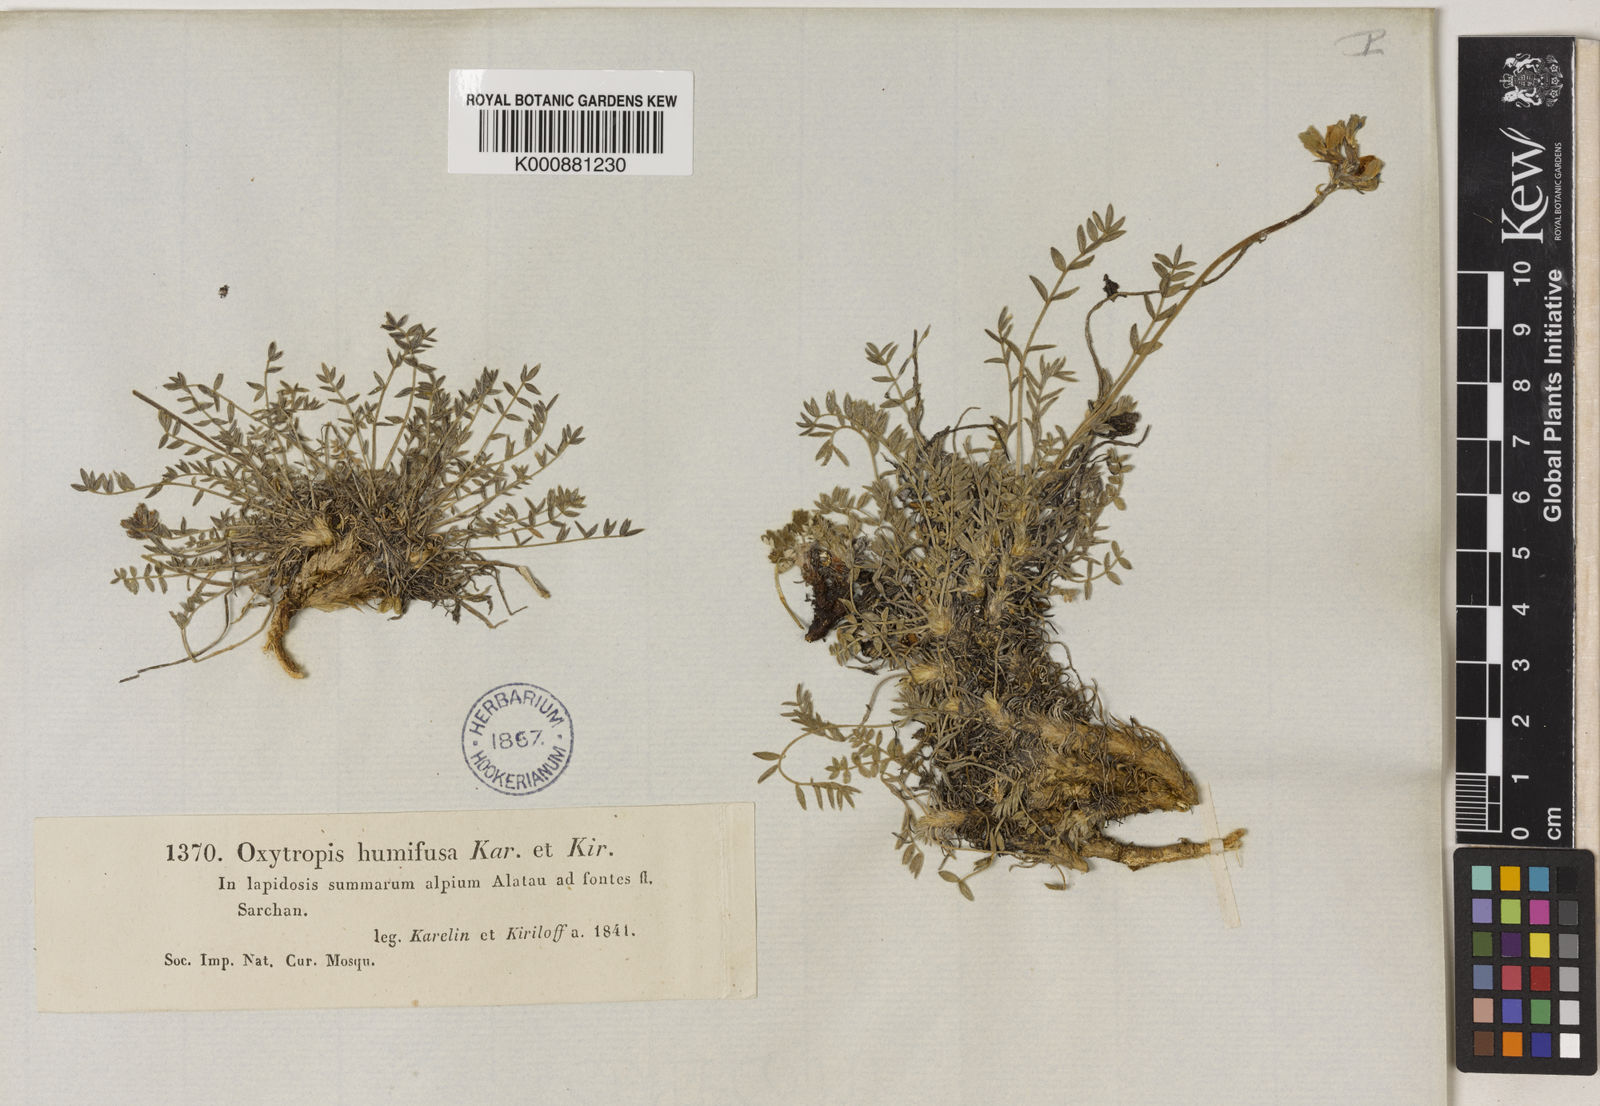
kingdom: Plantae
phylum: Tracheophyta
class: Magnoliopsida
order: Fabales
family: Fabaceae
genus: Oxytropis
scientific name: Oxytropis humifusa
